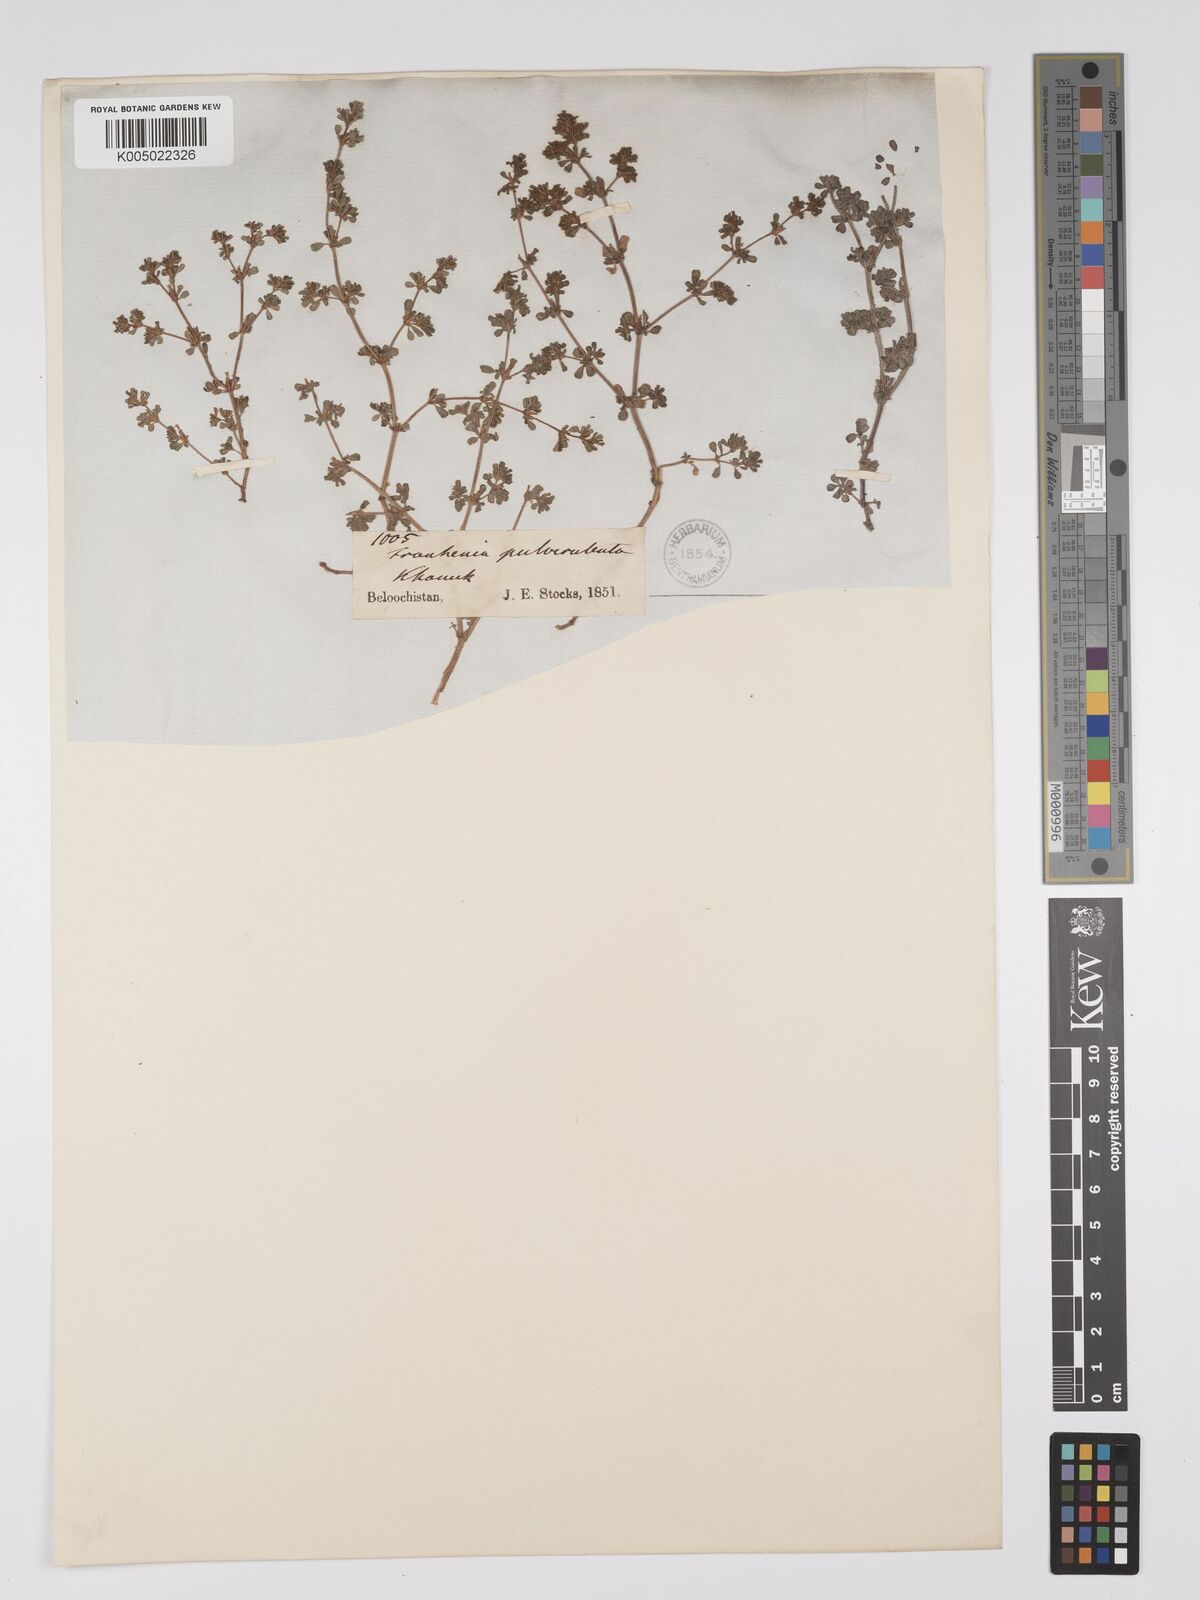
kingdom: Plantae
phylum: Tracheophyta
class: Magnoliopsida
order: Caryophyllales
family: Frankeniaceae
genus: Frankenia
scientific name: Frankenia pulverulenta
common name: European seaheath
